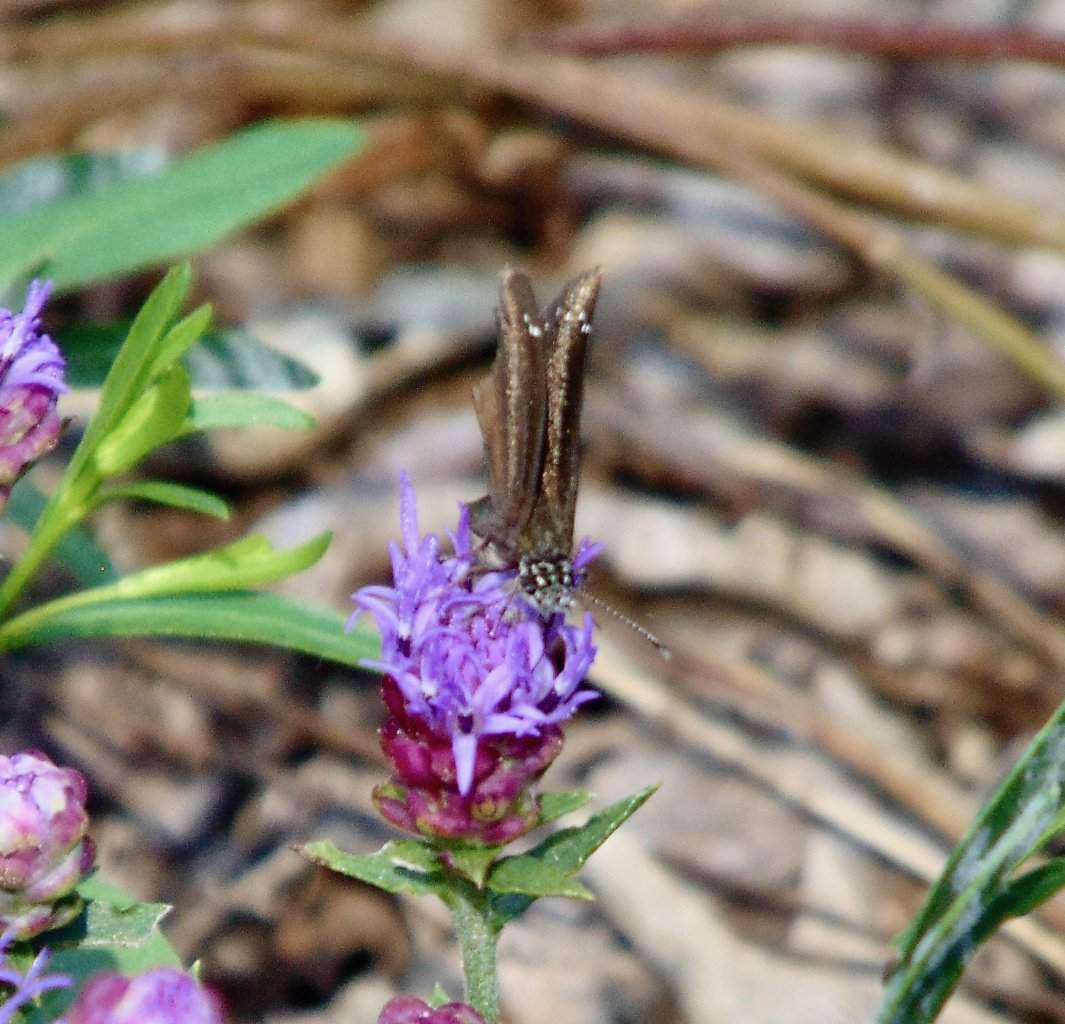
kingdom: Animalia
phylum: Arthropoda
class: Insecta
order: Lepidoptera
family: Hesperiidae
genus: Pholisora
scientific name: Pholisora catullus
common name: Common Sootywing
